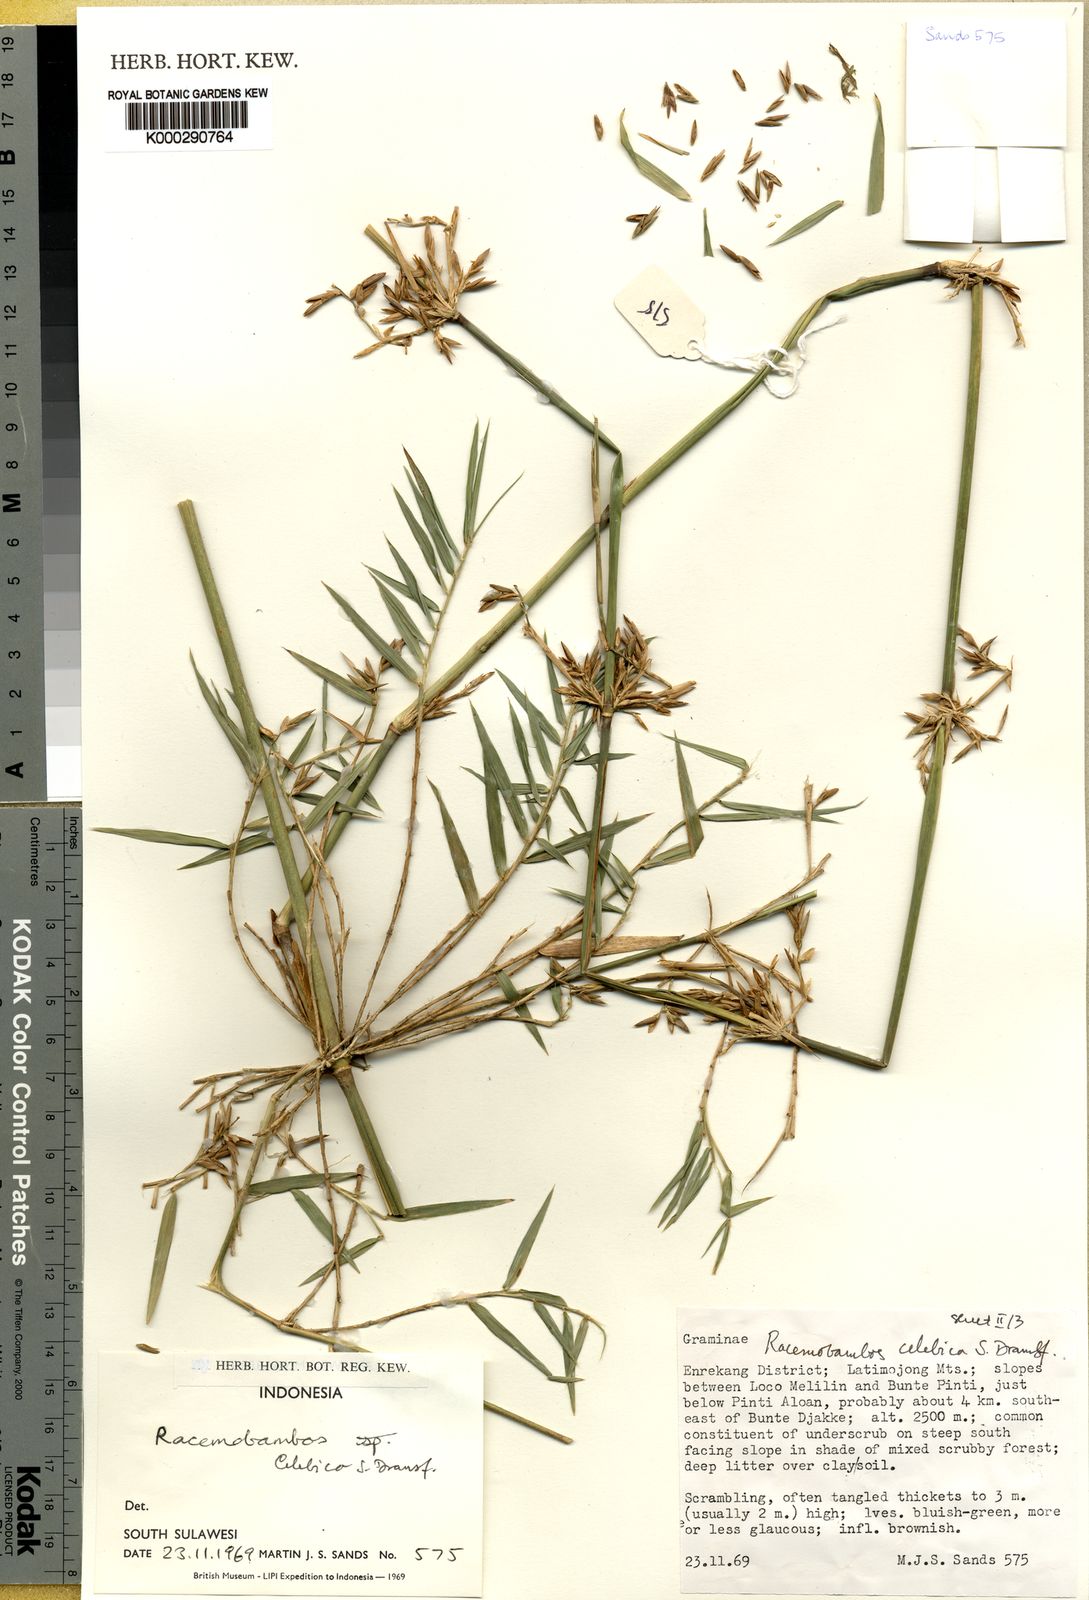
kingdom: Plantae
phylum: Tracheophyta
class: Liliopsida
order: Poales
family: Poaceae
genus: Racemobambos
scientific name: Racemobambos celebica
